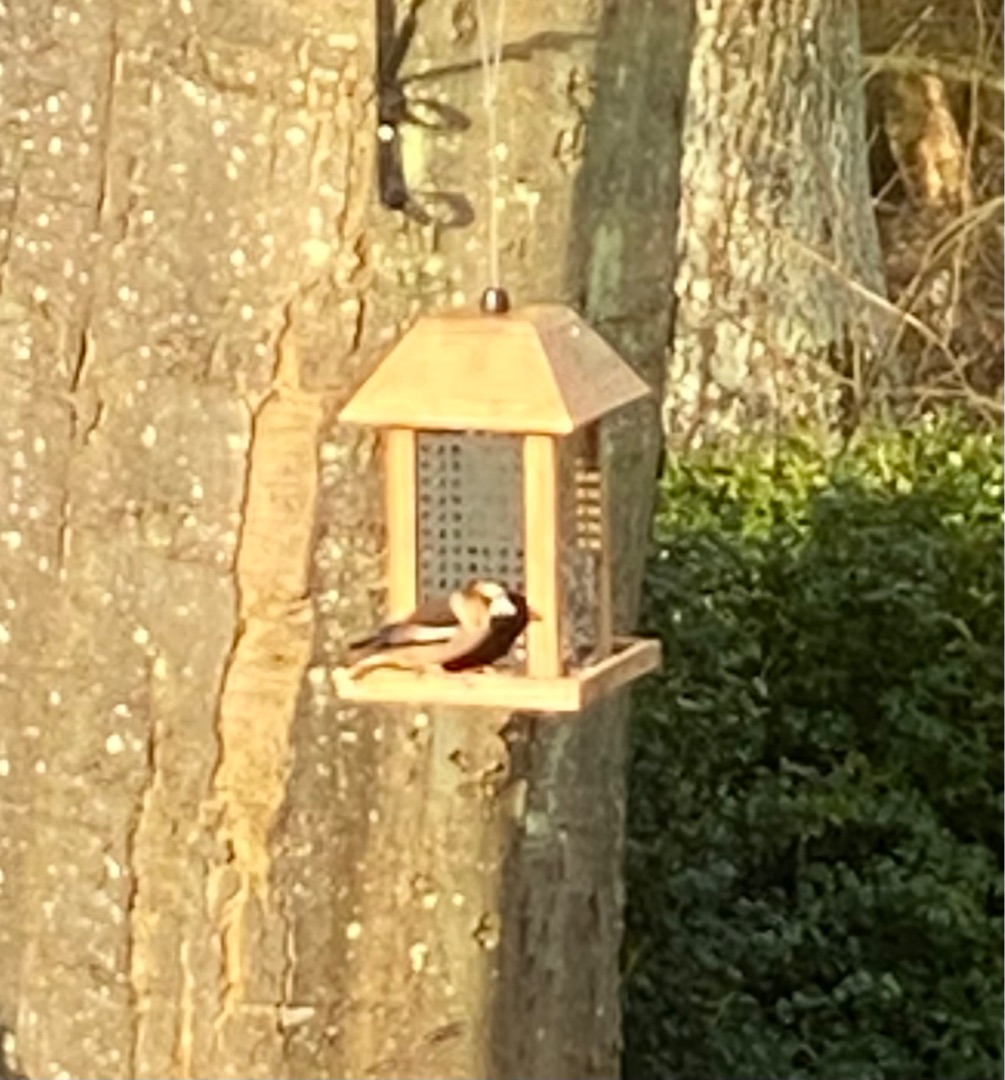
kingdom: Animalia
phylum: Chordata
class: Aves
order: Passeriformes
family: Fringillidae
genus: Coccothraustes
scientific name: Coccothraustes coccothraustes
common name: Kernebider
